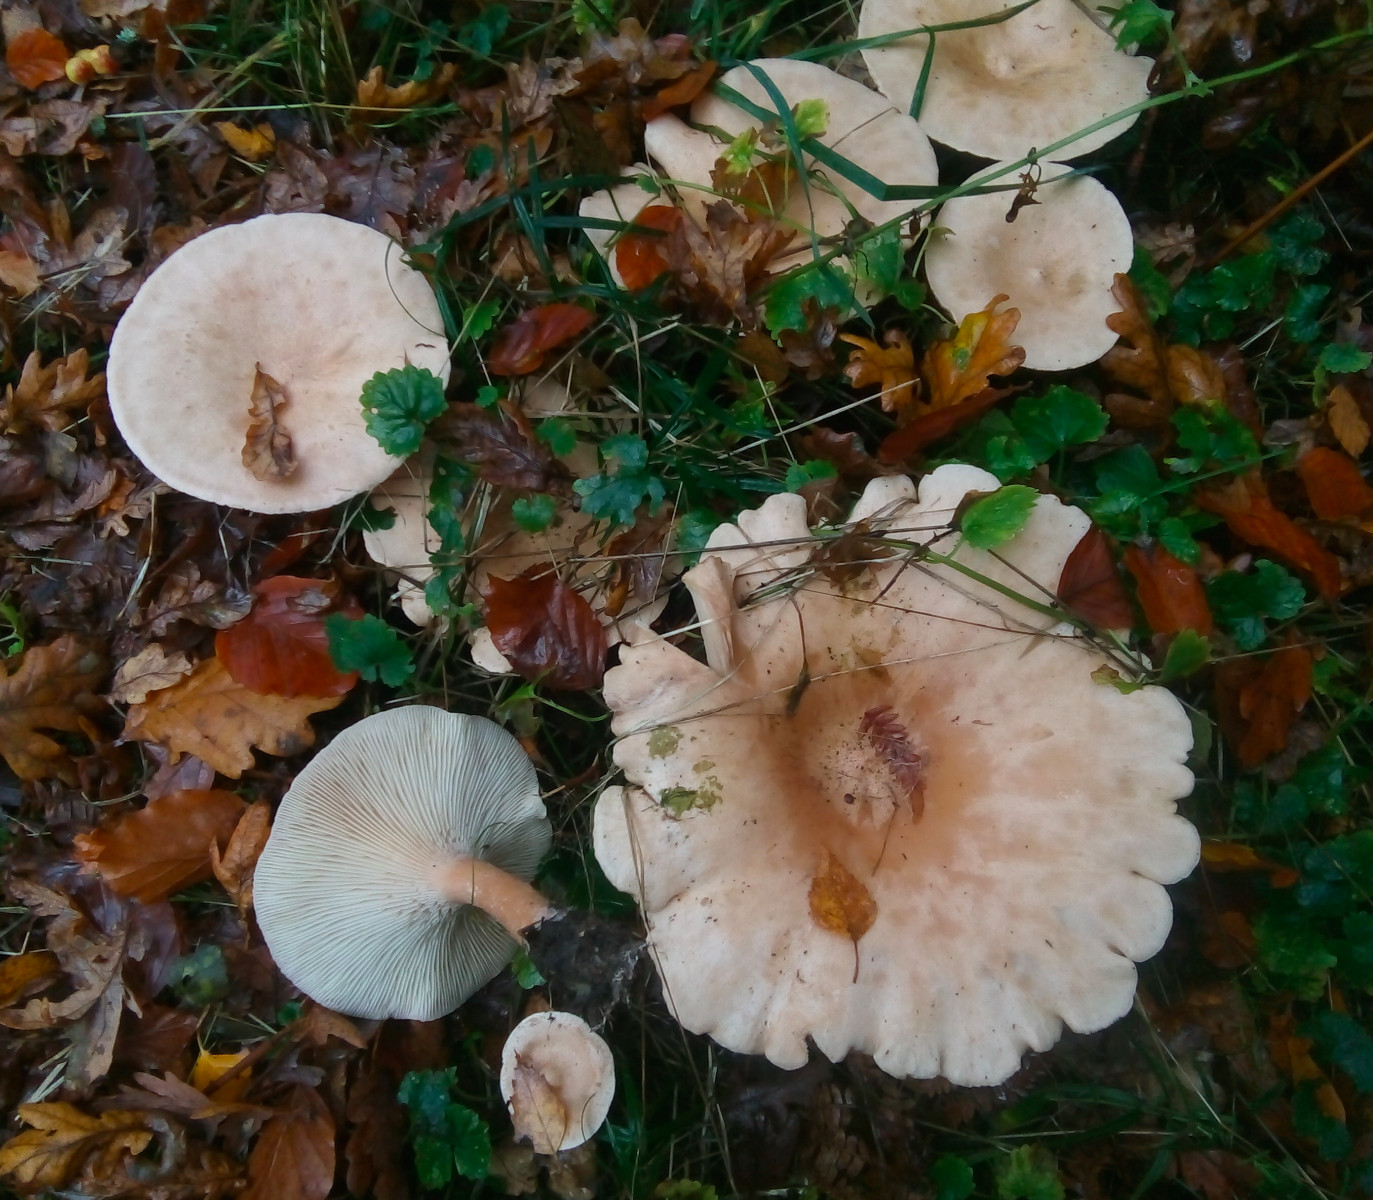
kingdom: Fungi
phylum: Basidiomycota
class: Agaricomycetes
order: Agaricales
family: Tricholomataceae
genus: Infundibulicybe
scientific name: Infundibulicybe geotropa
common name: stor tragthat
